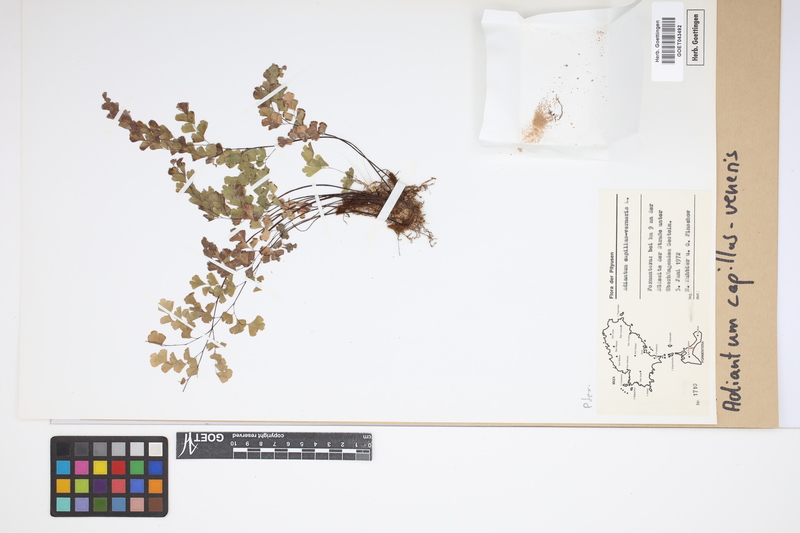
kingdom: Plantae
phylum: Tracheophyta
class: Polypodiopsida
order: Polypodiales
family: Pteridaceae
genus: Adiantum
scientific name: Adiantum capillus-veneris
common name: Maidenhair fern
